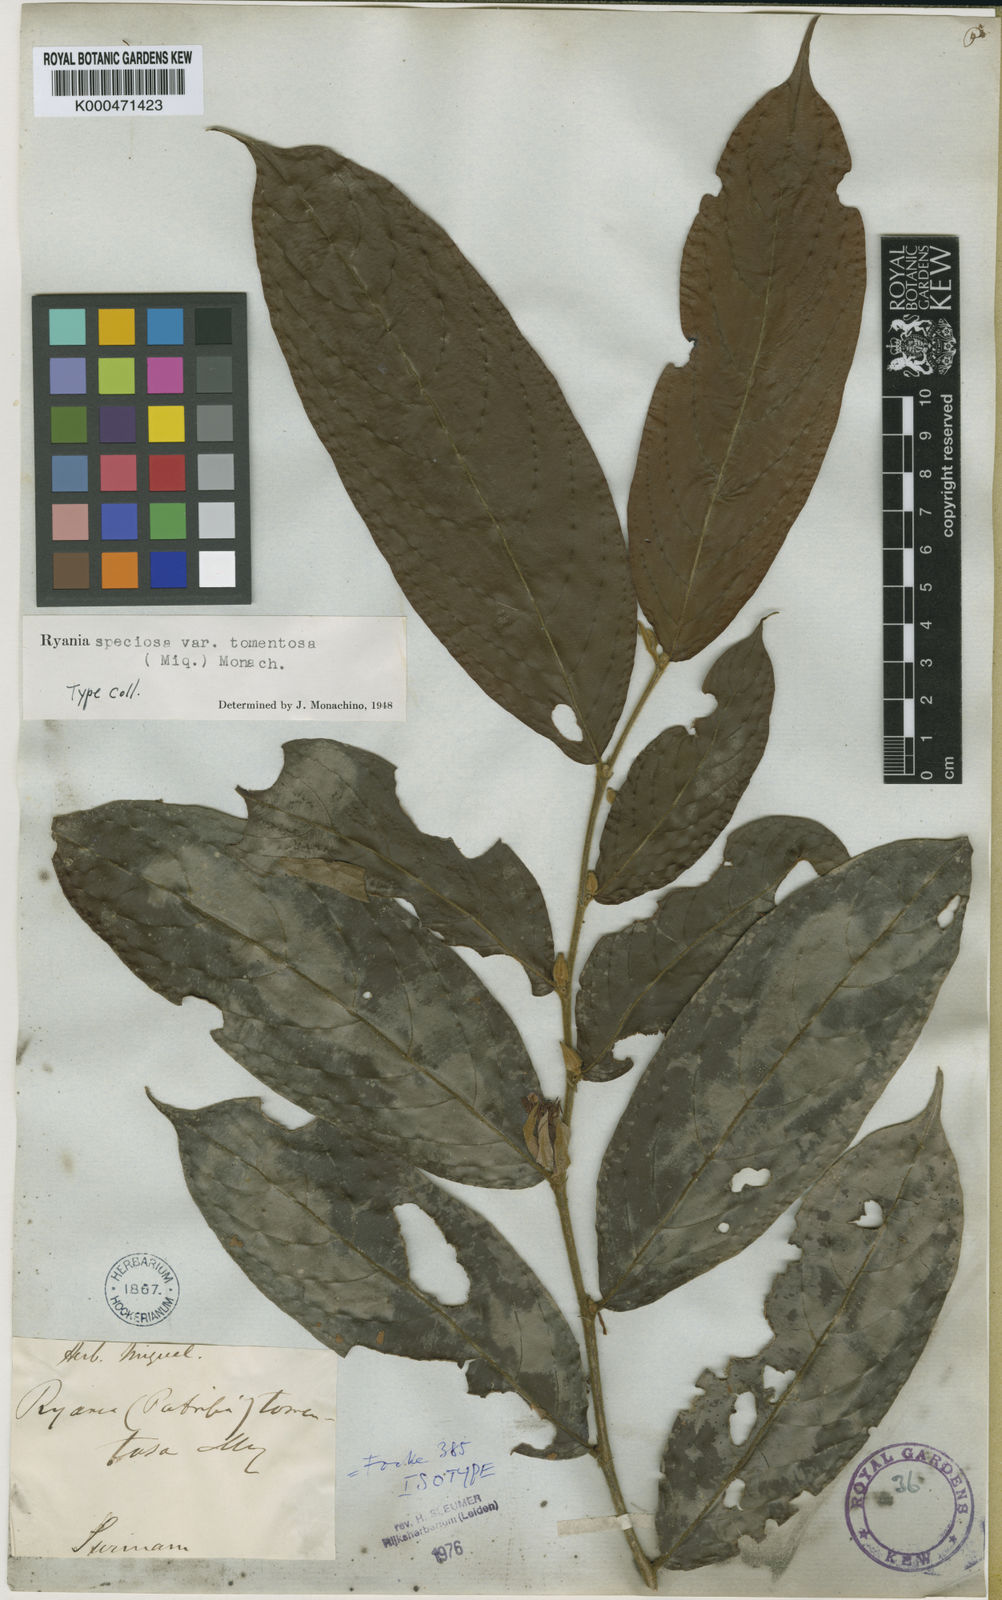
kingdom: Plantae
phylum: Tracheophyta
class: Magnoliopsida
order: Malpighiales
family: Salicaceae
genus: Ryania
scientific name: Ryania speciosa
